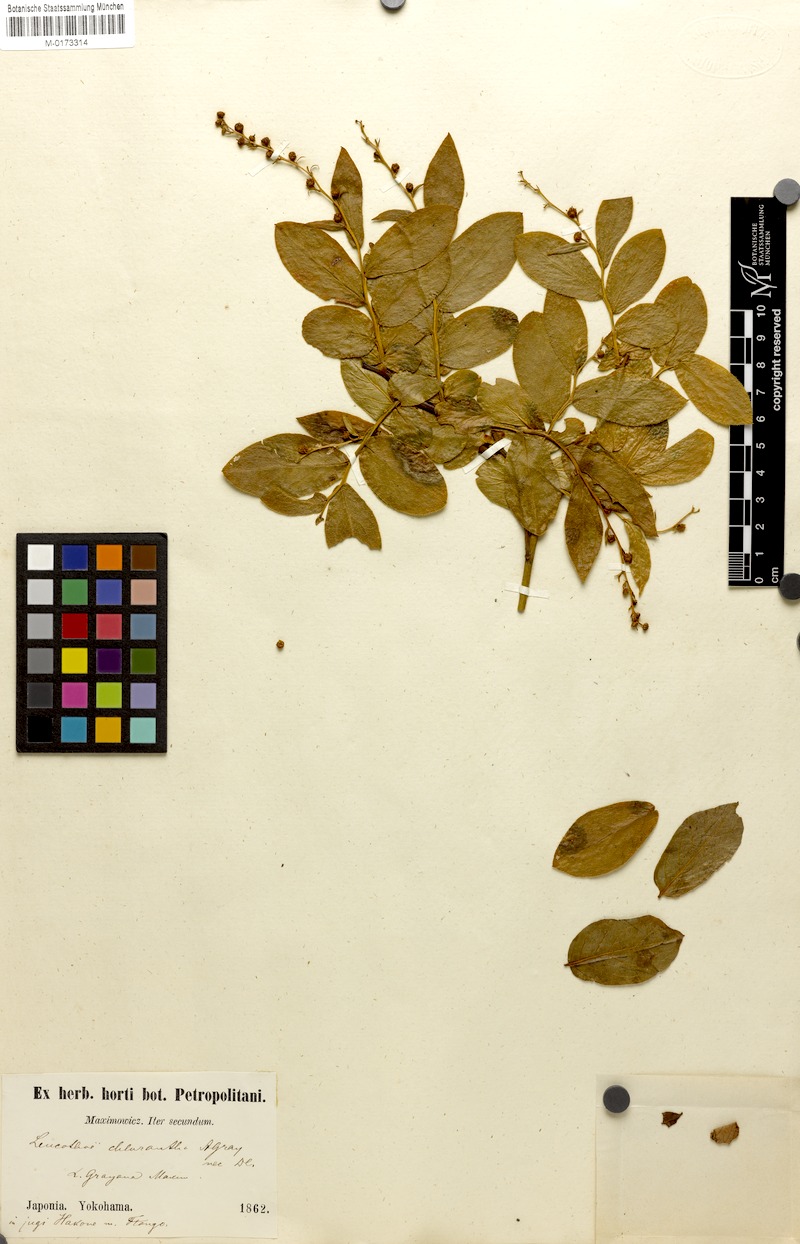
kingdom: Plantae
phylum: Tracheophyta
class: Magnoliopsida
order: Ericales
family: Ericaceae
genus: Leucothoe
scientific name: Leucothoe grayana
